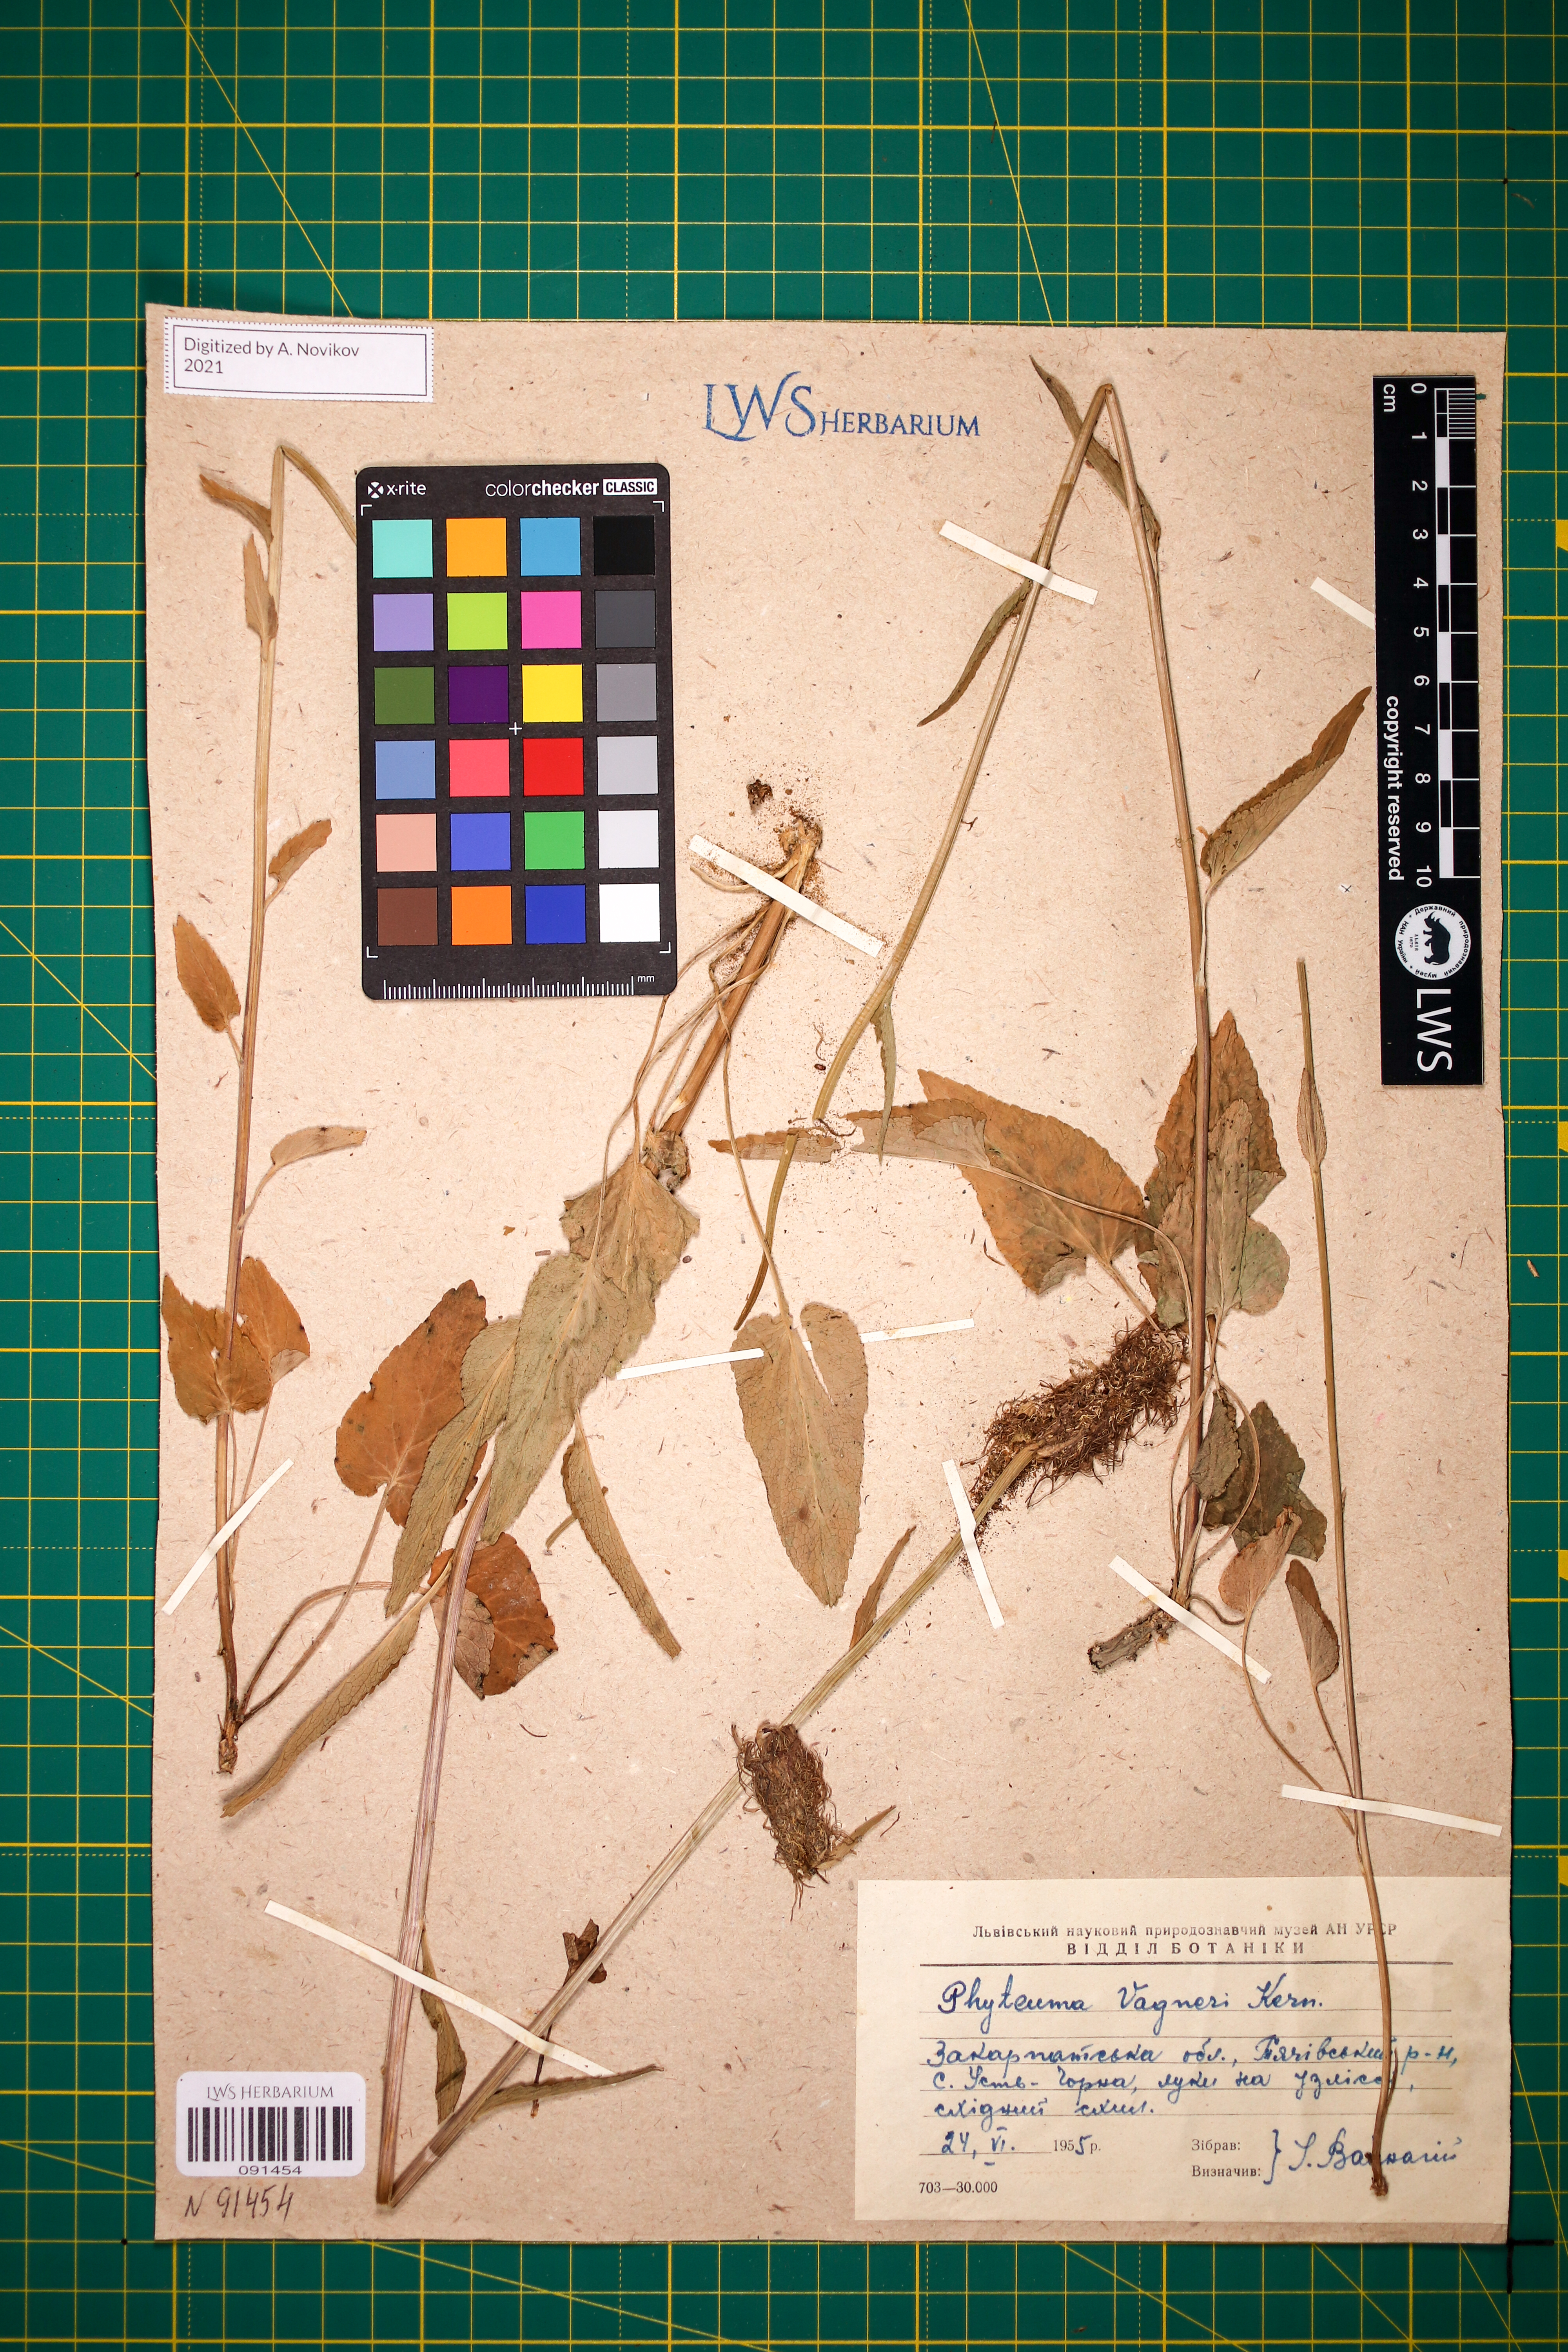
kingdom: Plantae
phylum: Tracheophyta
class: Magnoliopsida
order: Asterales
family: Campanulaceae
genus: Phyteuma
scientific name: Phyteuma vagneri
